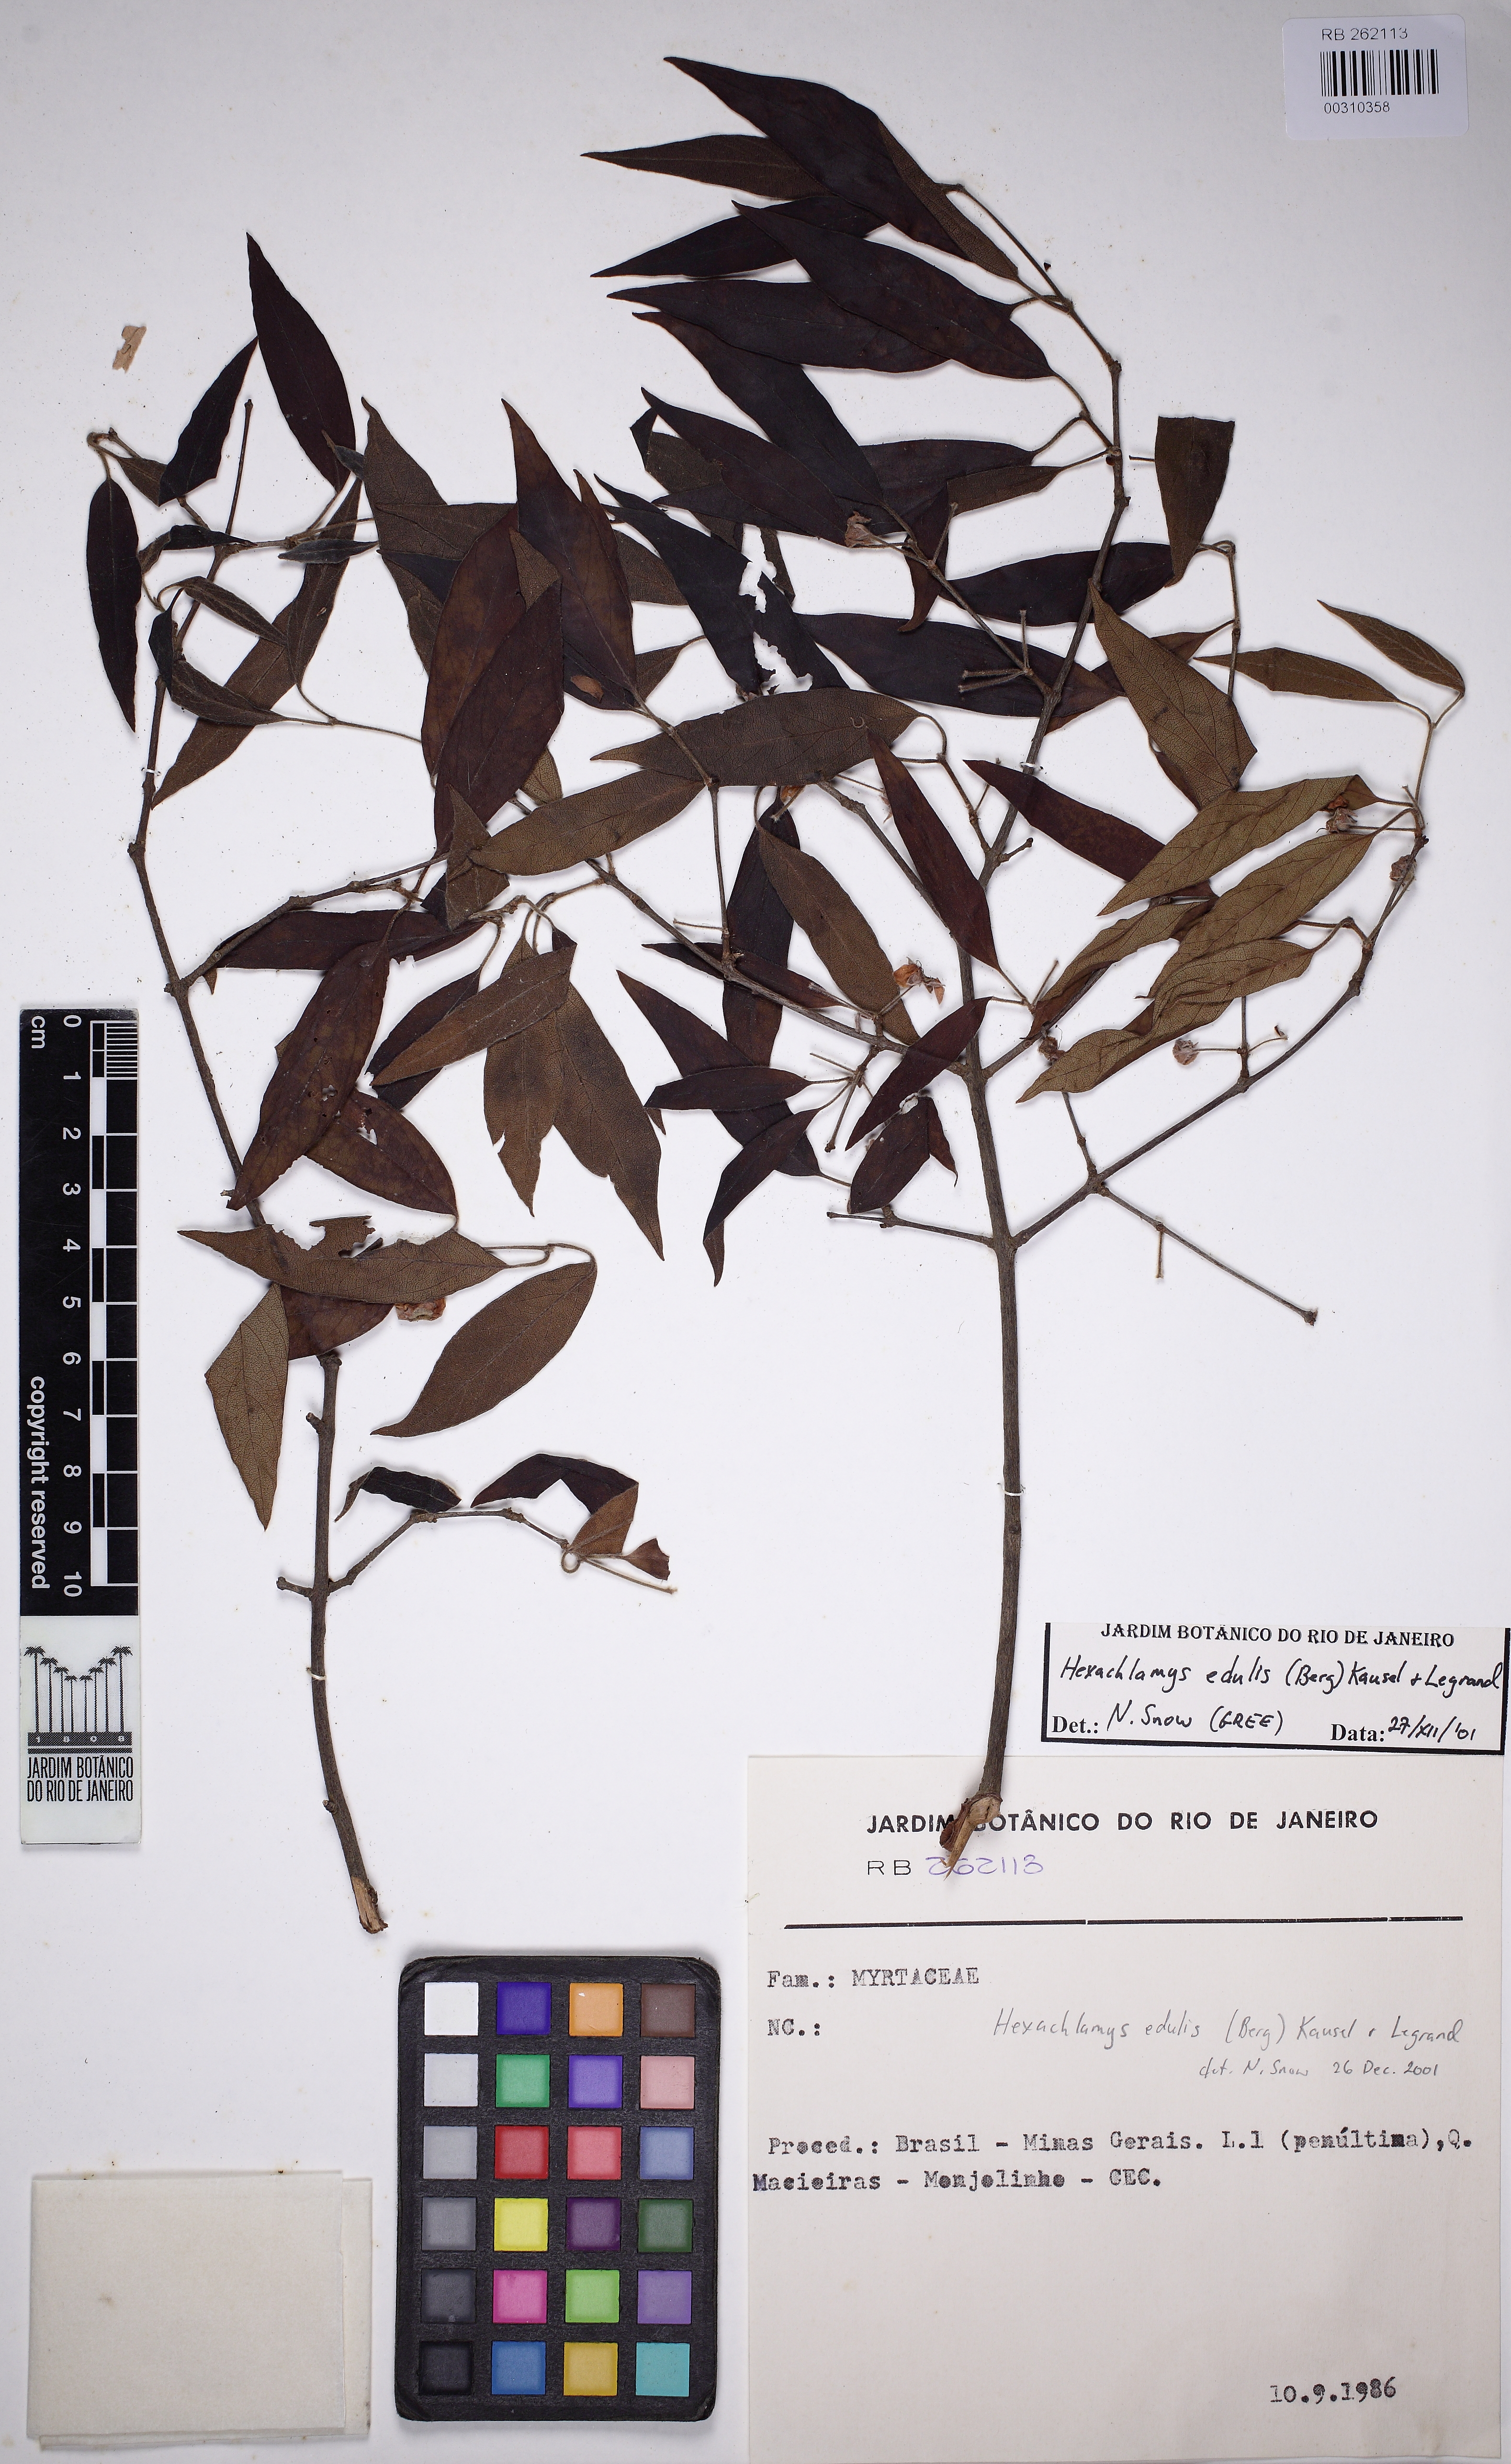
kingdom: Plantae
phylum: Tracheophyta
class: Magnoliopsida
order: Myrtales
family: Myrtaceae
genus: Eugenia
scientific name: Eugenia myrcianthes
